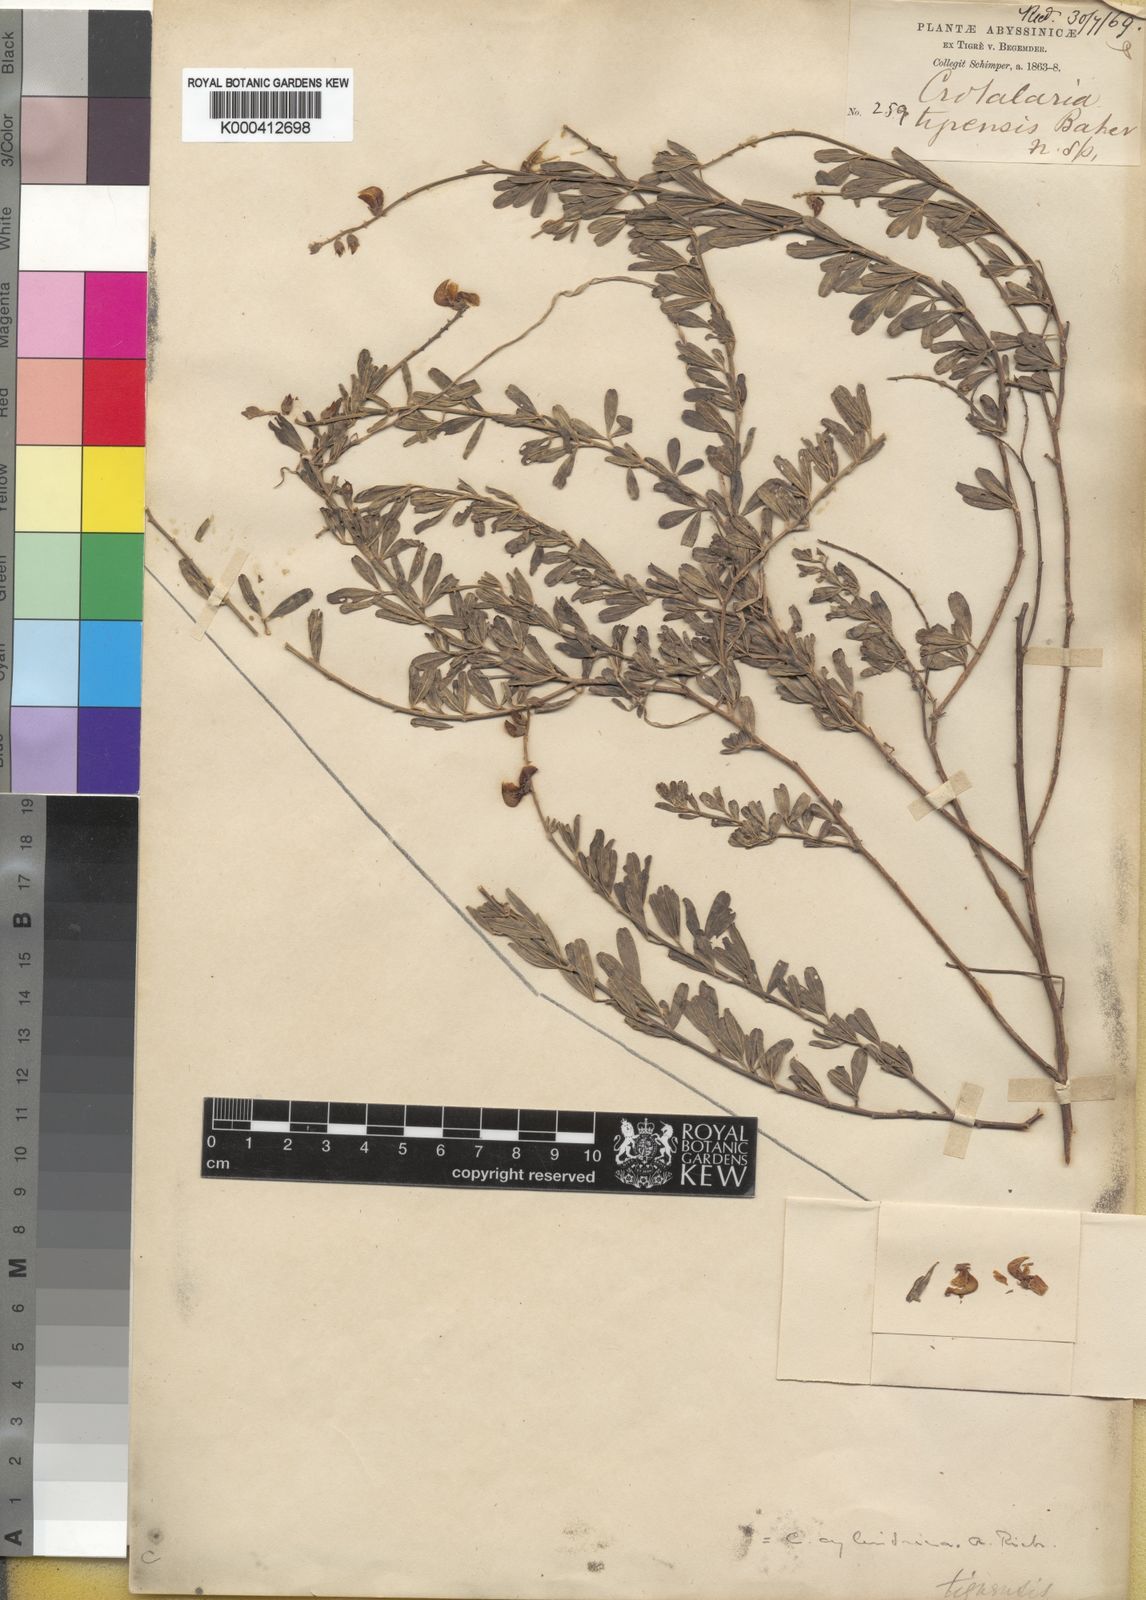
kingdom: Plantae
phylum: Tracheophyta
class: Magnoliopsida
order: Fabales
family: Fabaceae
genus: Crotalaria
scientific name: Crotalaria cylindrica
